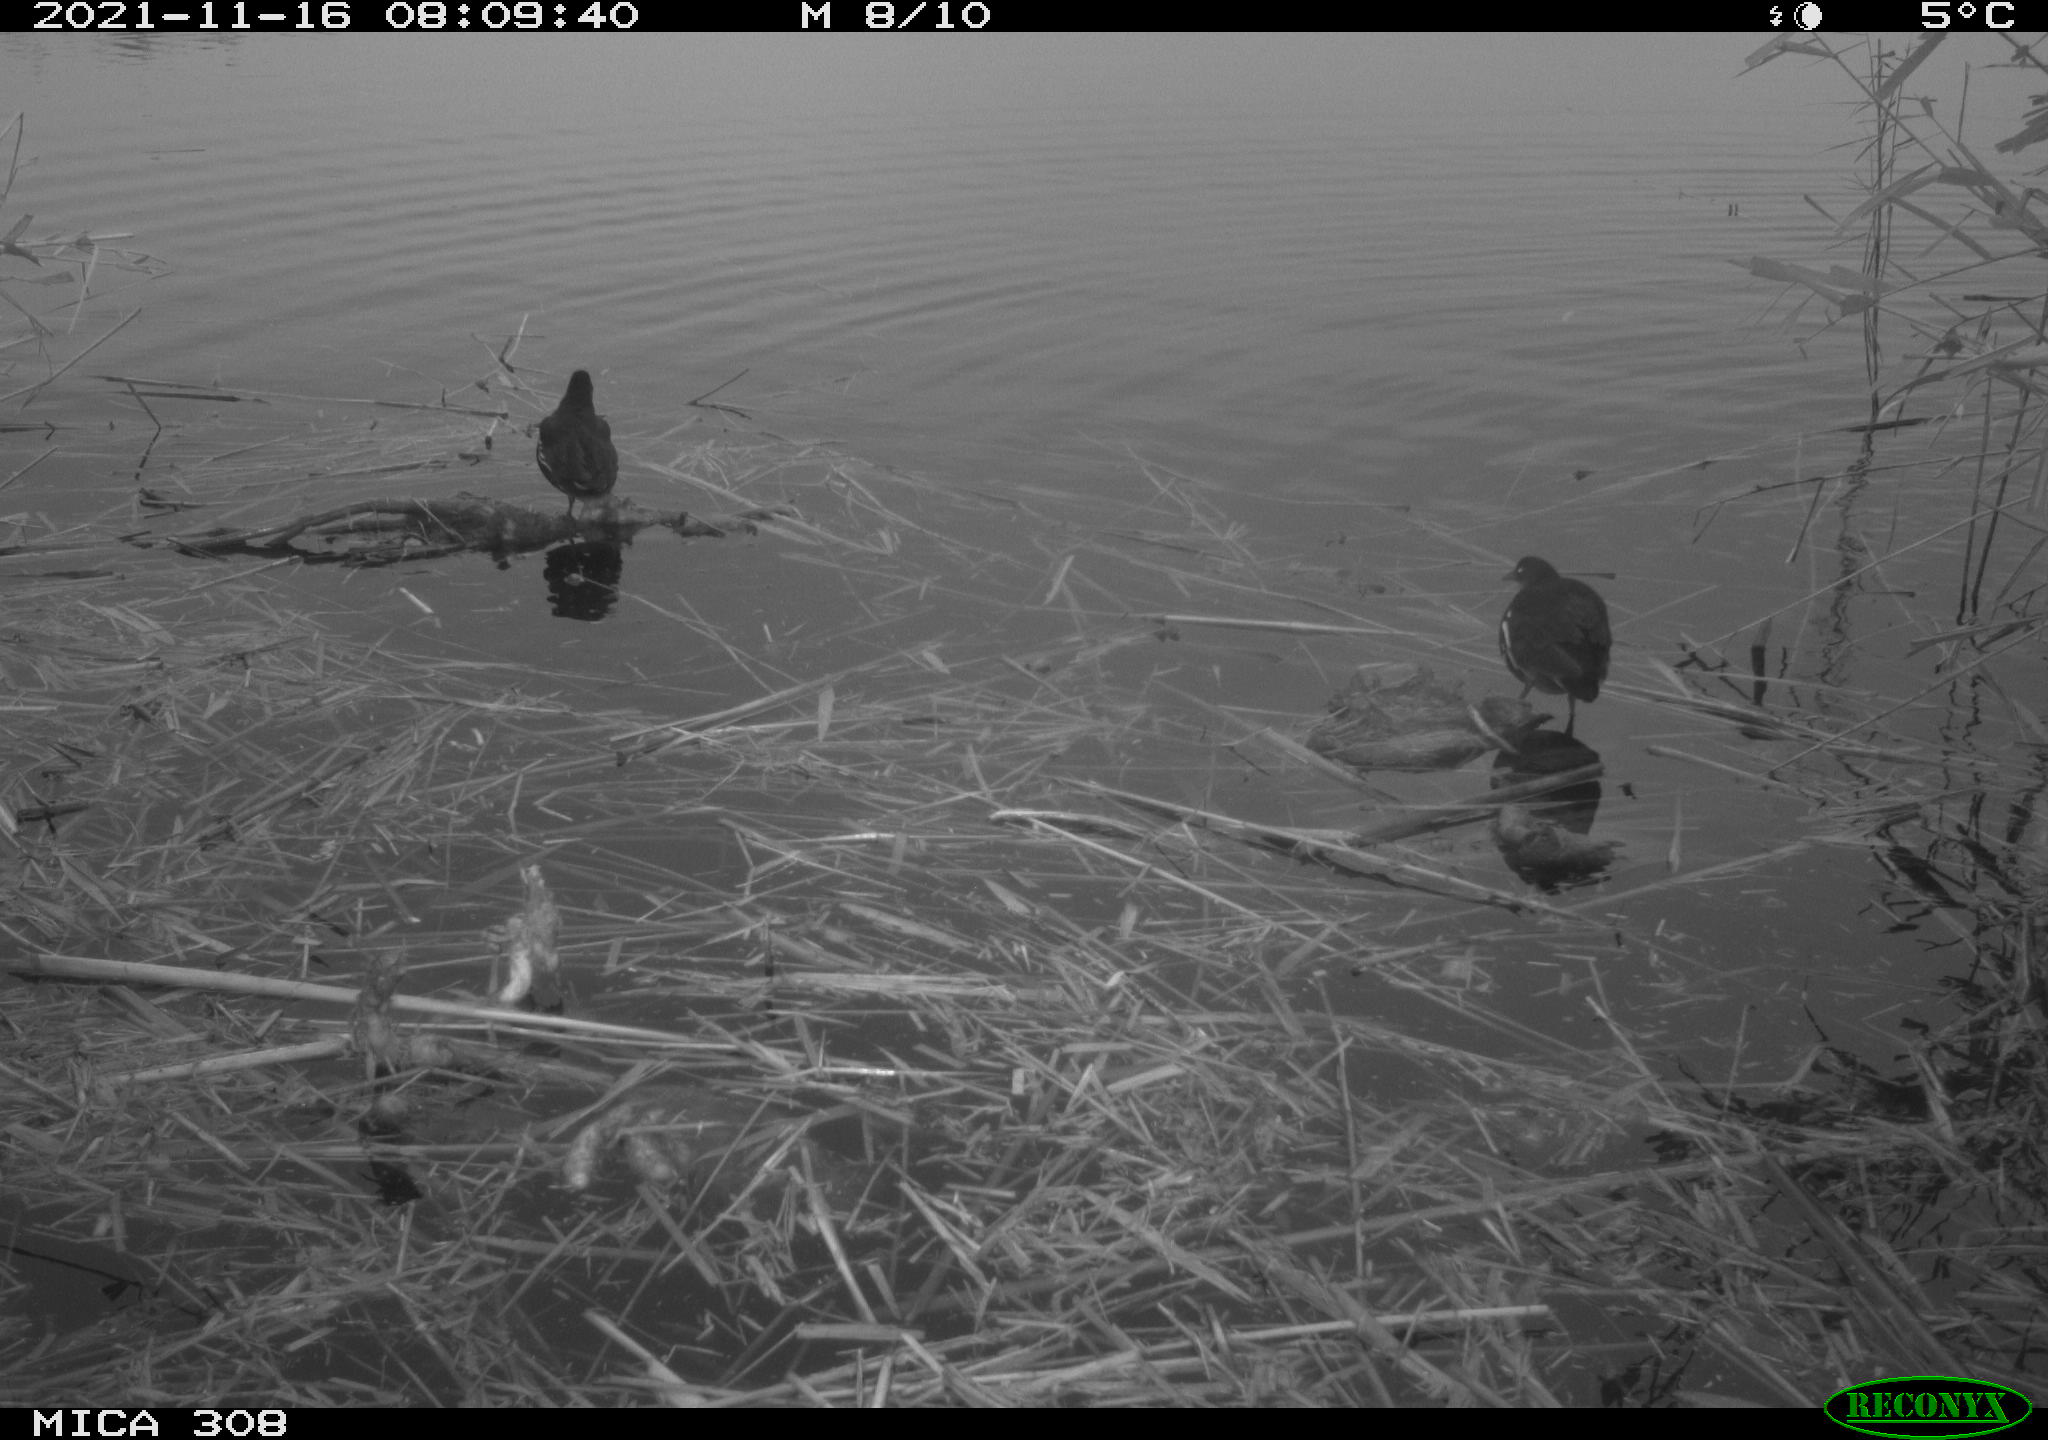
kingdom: Animalia
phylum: Chordata
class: Aves
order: Gruiformes
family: Rallidae
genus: Gallinula
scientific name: Gallinula chloropus
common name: Common moorhen
